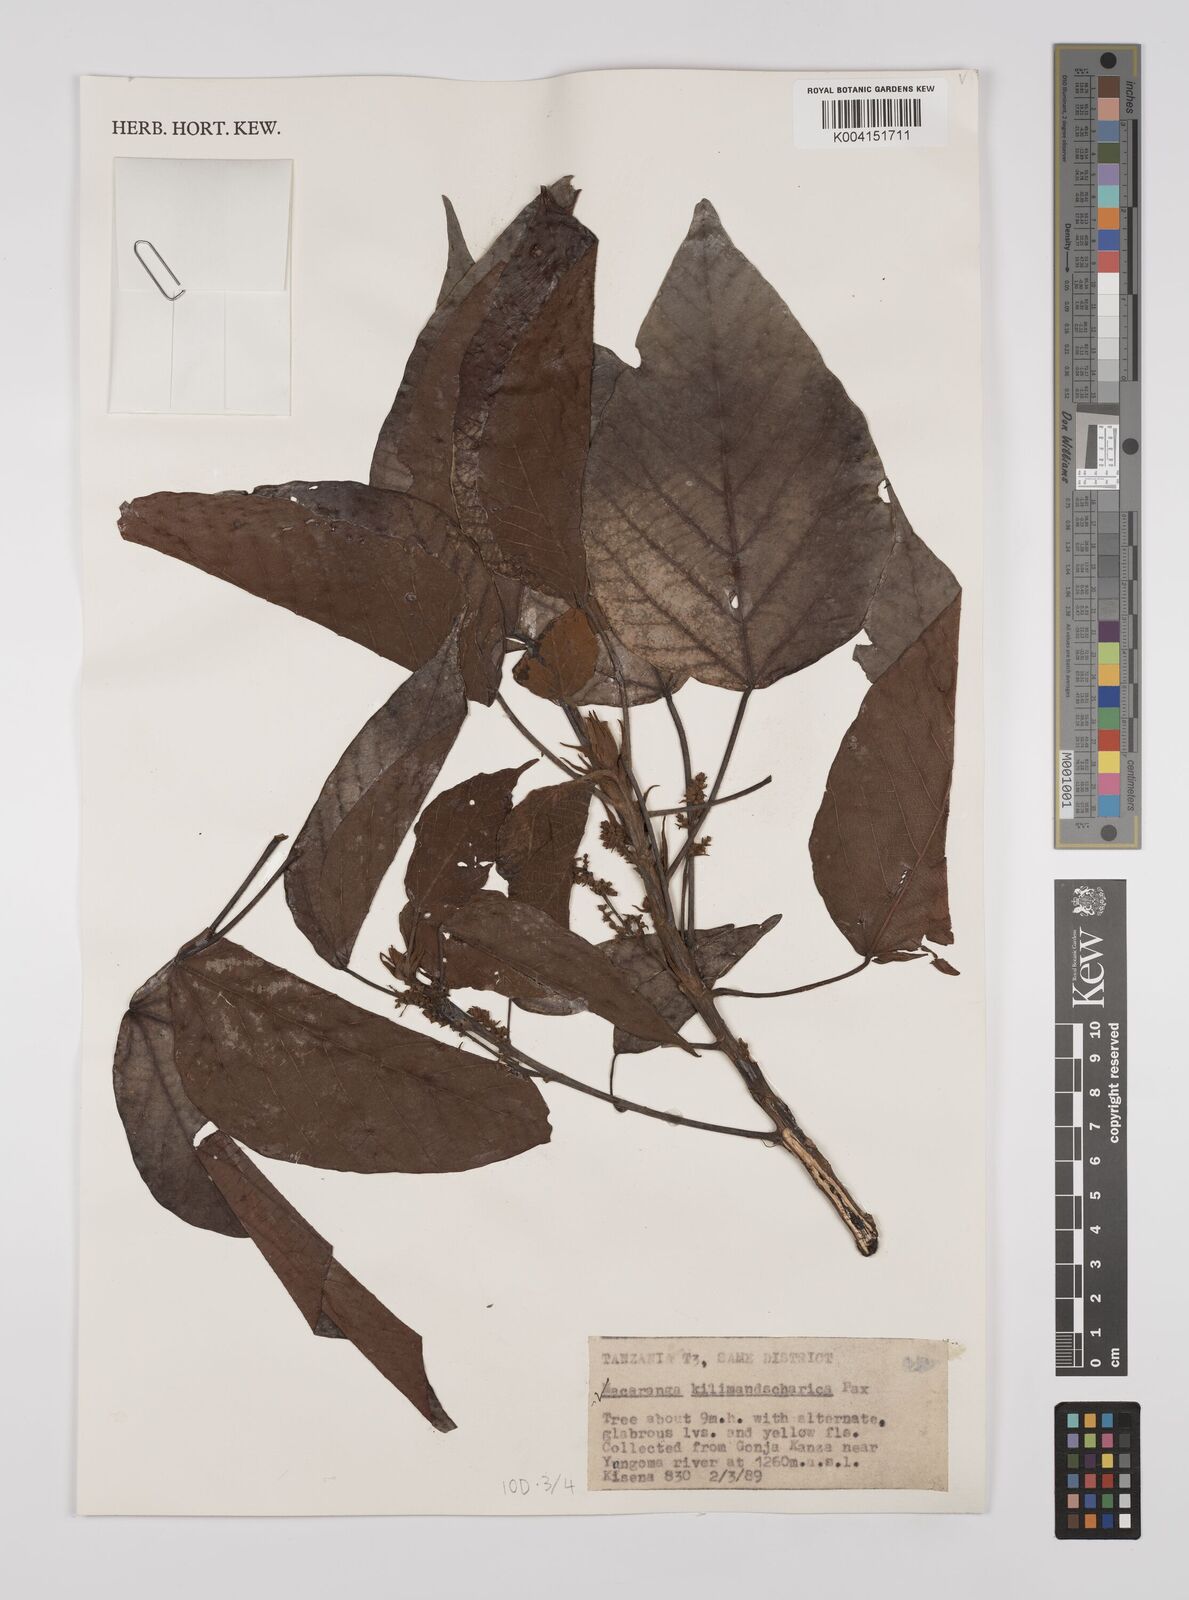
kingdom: Plantae
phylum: Tracheophyta
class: Magnoliopsida
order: Malpighiales
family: Euphorbiaceae
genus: Macaranga
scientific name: Macaranga kilimandscharica
